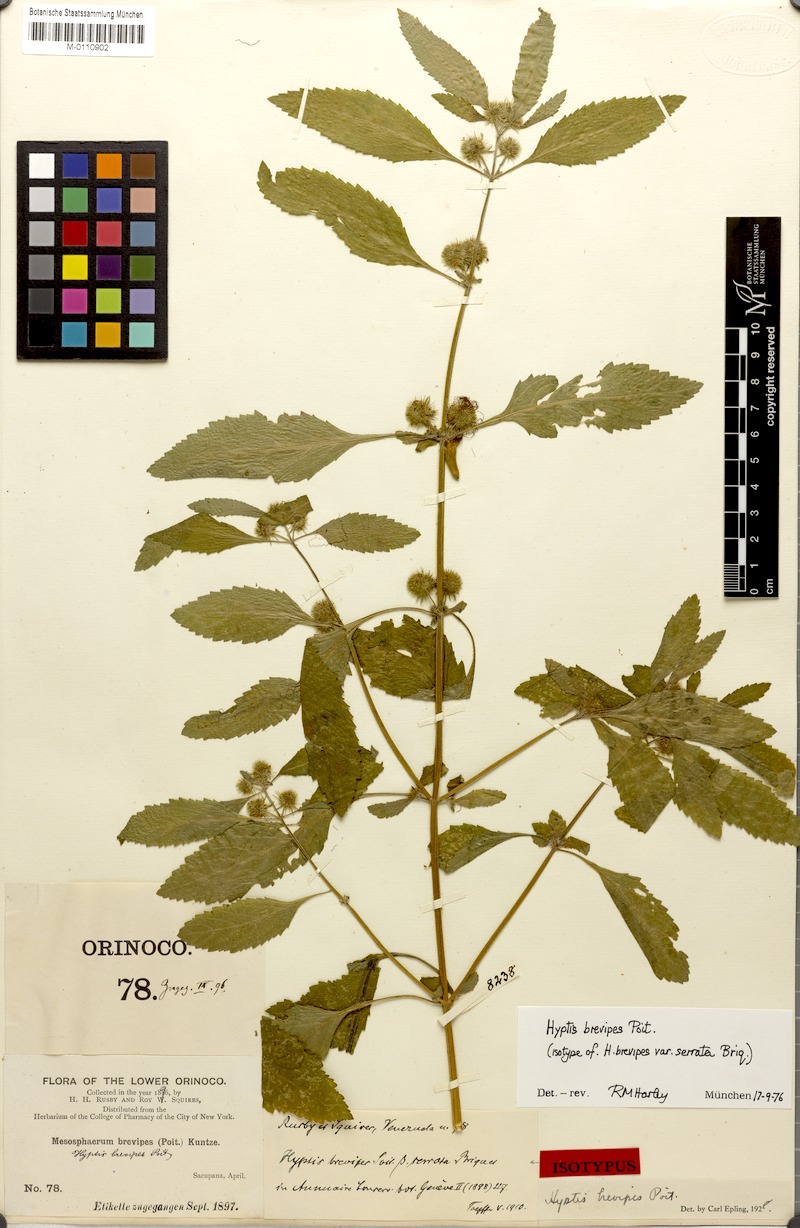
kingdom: Plantae
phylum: Tracheophyta
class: Magnoliopsida
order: Lamiales
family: Lamiaceae
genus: Hyptis
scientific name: Hyptis brevipes
